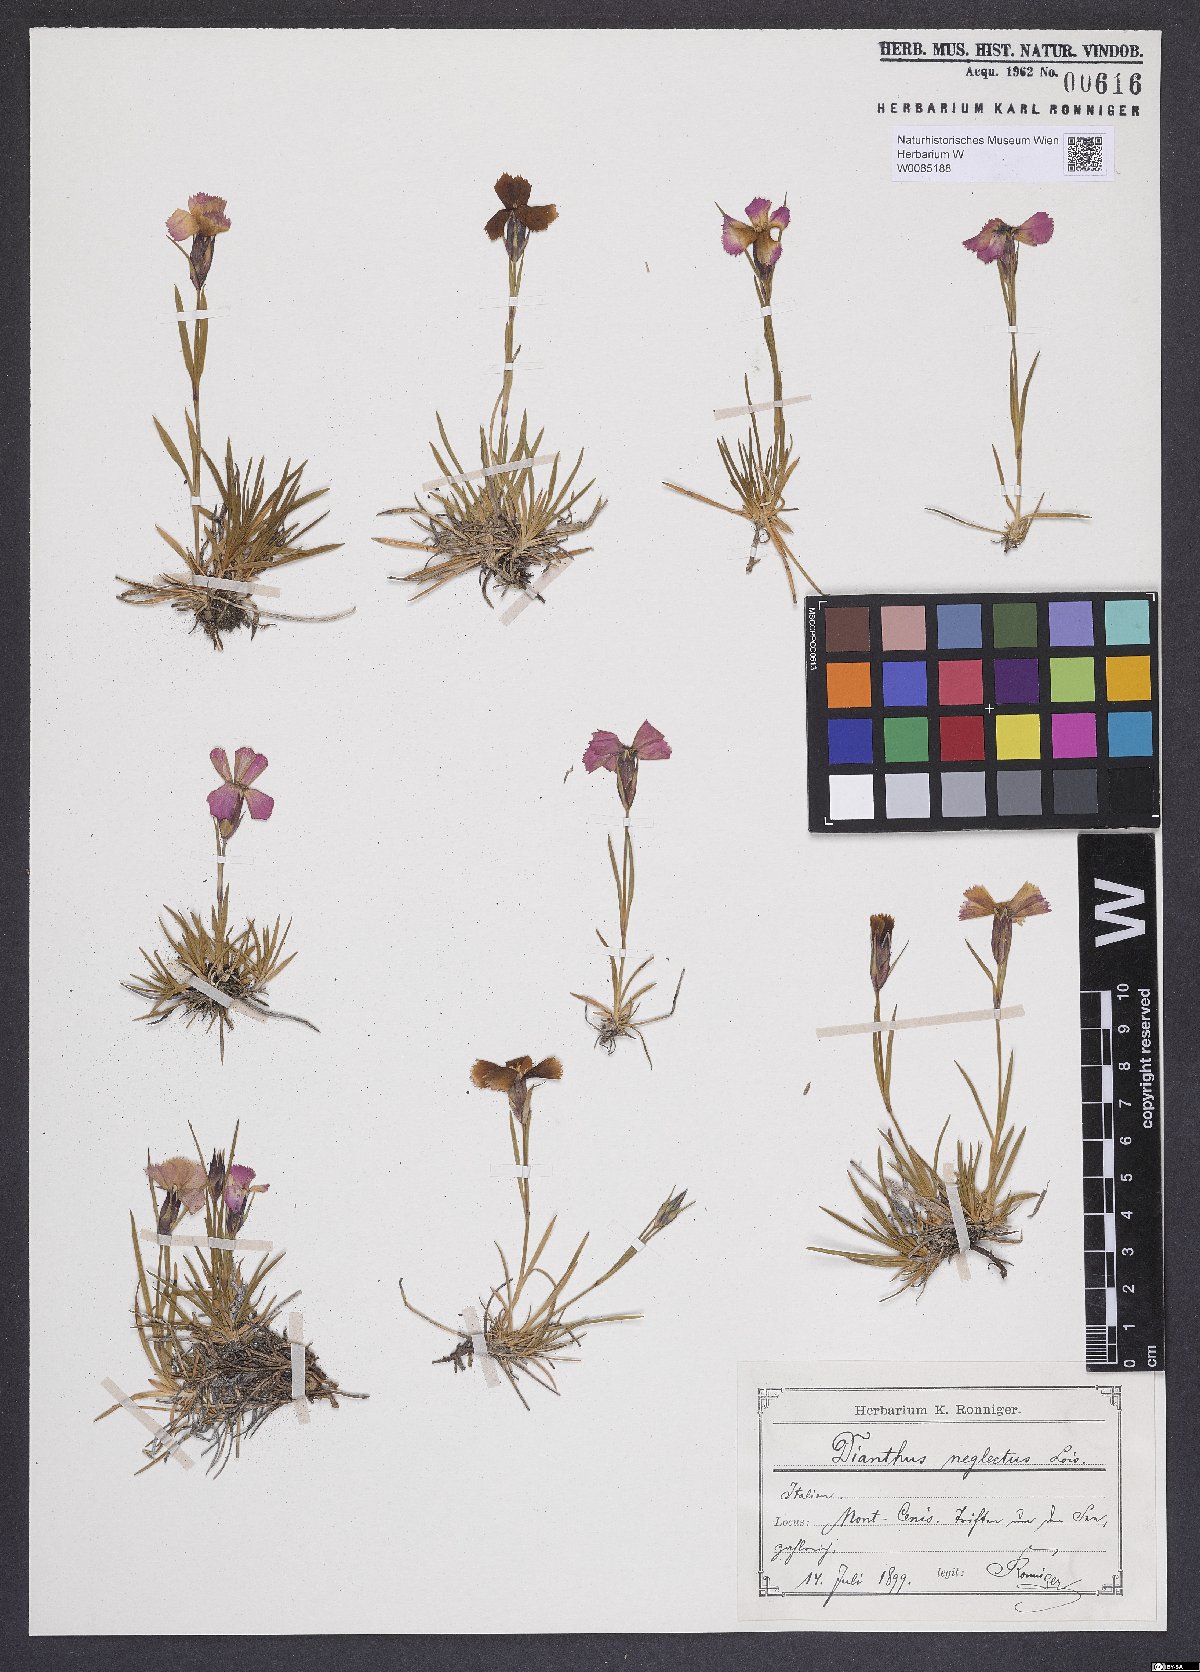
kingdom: Plantae
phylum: Tracheophyta
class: Magnoliopsida
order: Caryophyllales
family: Caryophyllaceae
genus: Dianthus
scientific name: Dianthus pavonius
